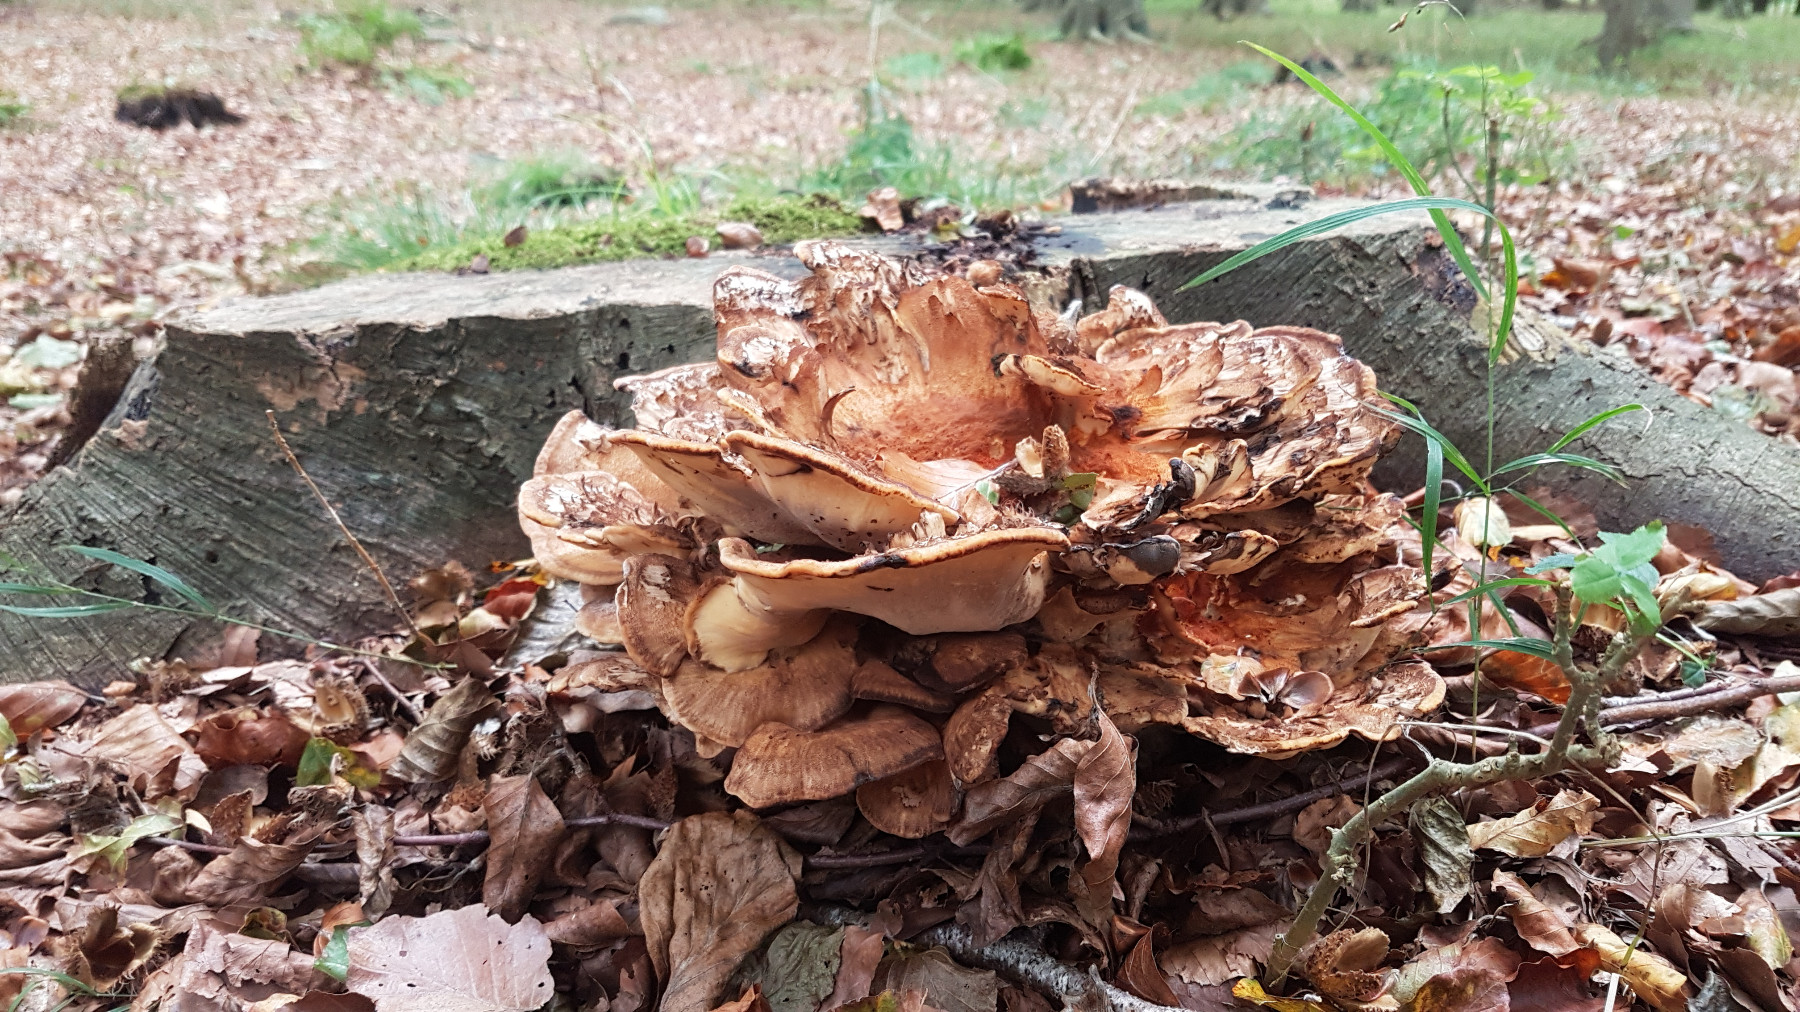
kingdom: Fungi
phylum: Basidiomycota
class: Agaricomycetes
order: Polyporales
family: Meripilaceae
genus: Meripilus
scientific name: Meripilus giganteus
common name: kæmpeporesvamp
